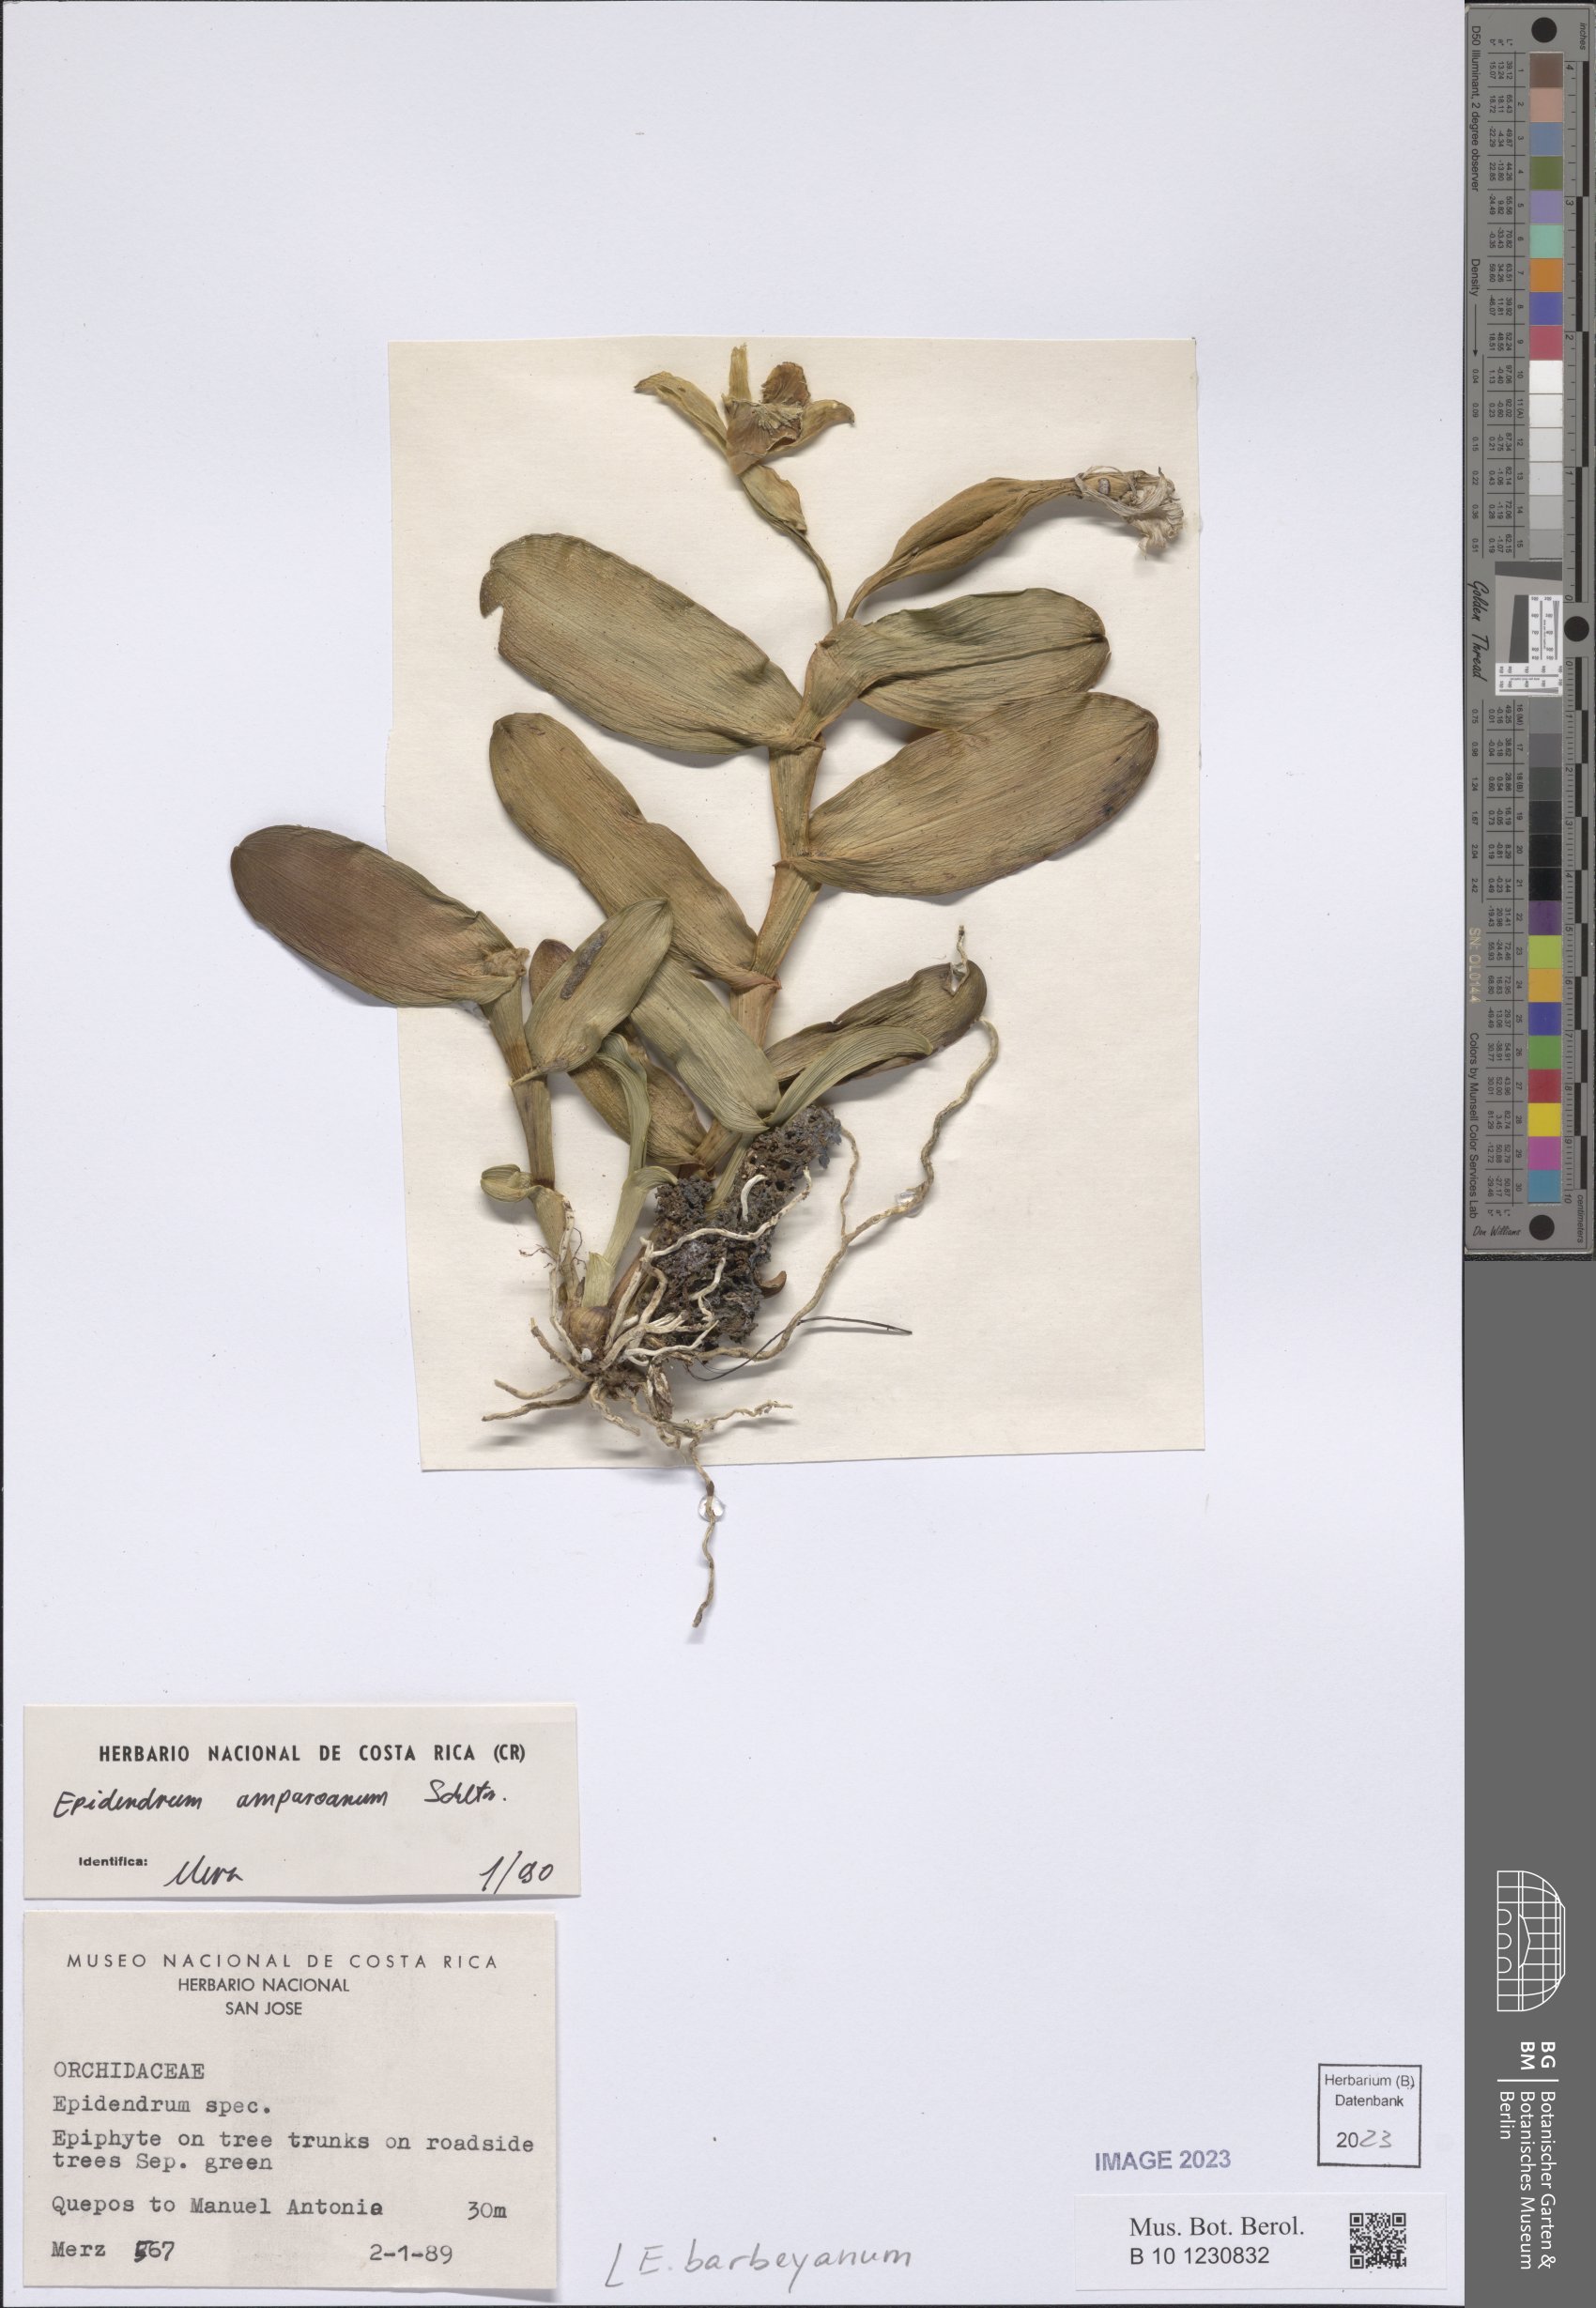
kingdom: Plantae
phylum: Tracheophyta
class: Liliopsida
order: Asparagales
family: Orchidaceae
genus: Epidendrum
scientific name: Epidendrum barbeyanum
